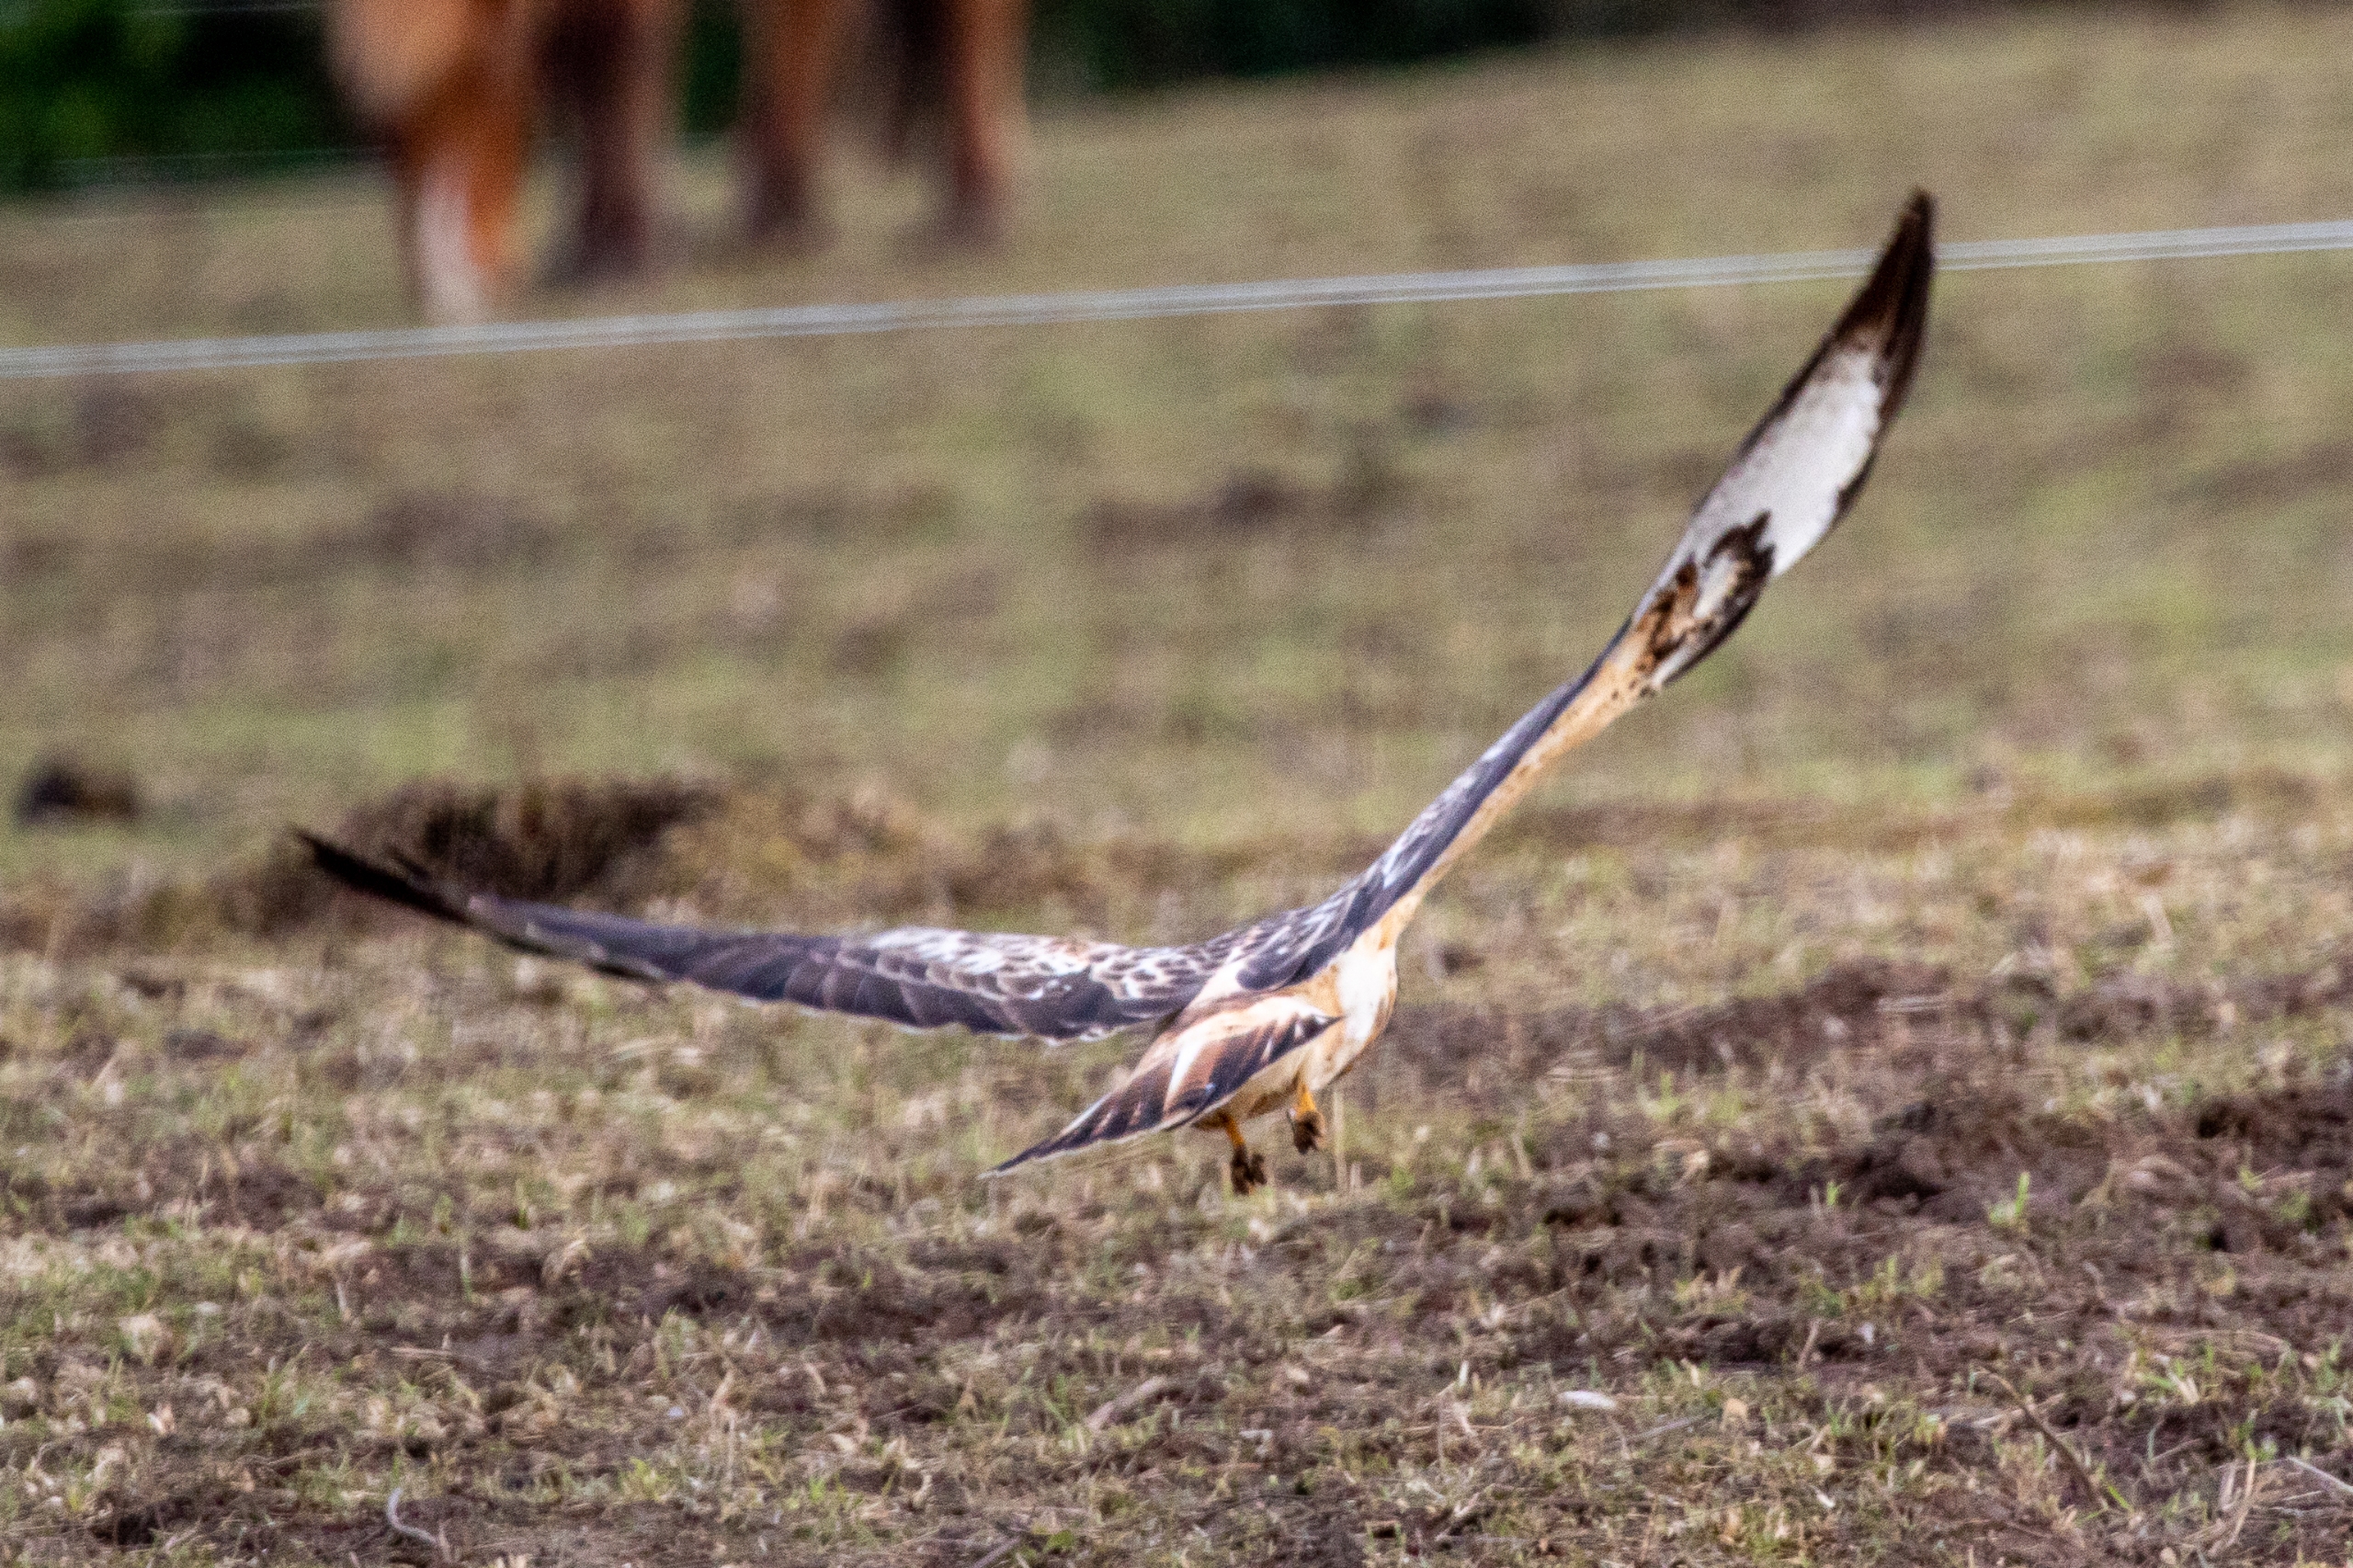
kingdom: Animalia
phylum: Chordata
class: Aves
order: Accipitriformes
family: Accipitridae
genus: Buteo
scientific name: Buteo buteo
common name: Musvåge
